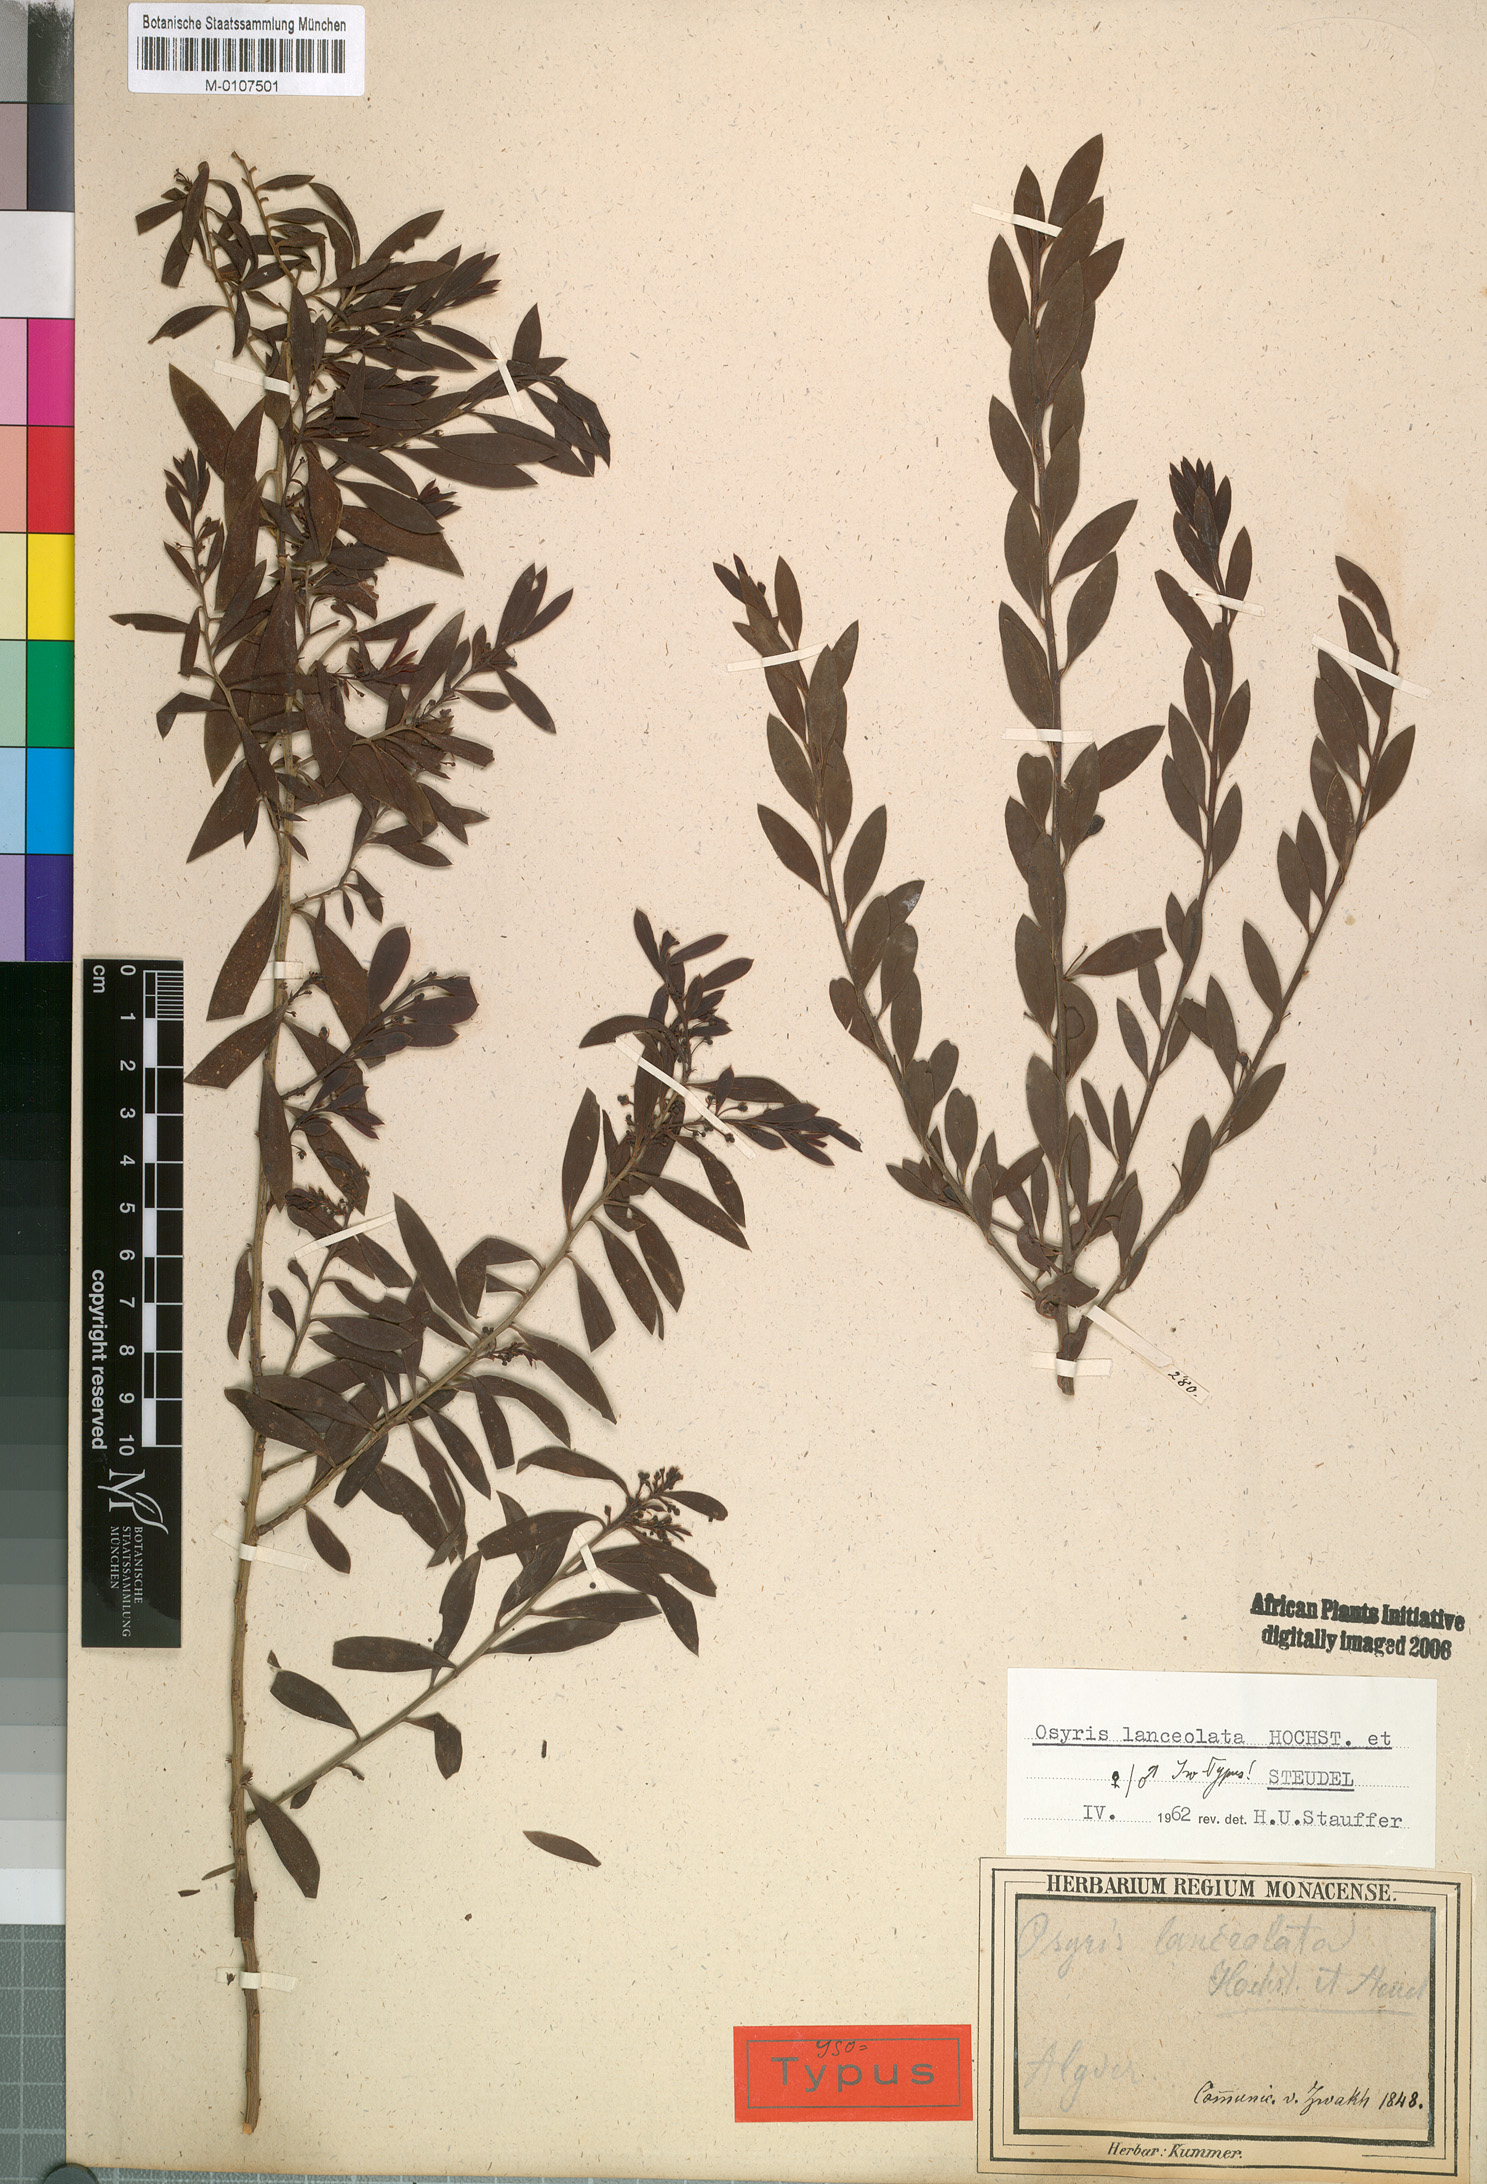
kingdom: Plantae
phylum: Tracheophyta
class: Magnoliopsida
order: Santalales
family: Santalaceae
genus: Osyris
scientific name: Osyris lanceolata
